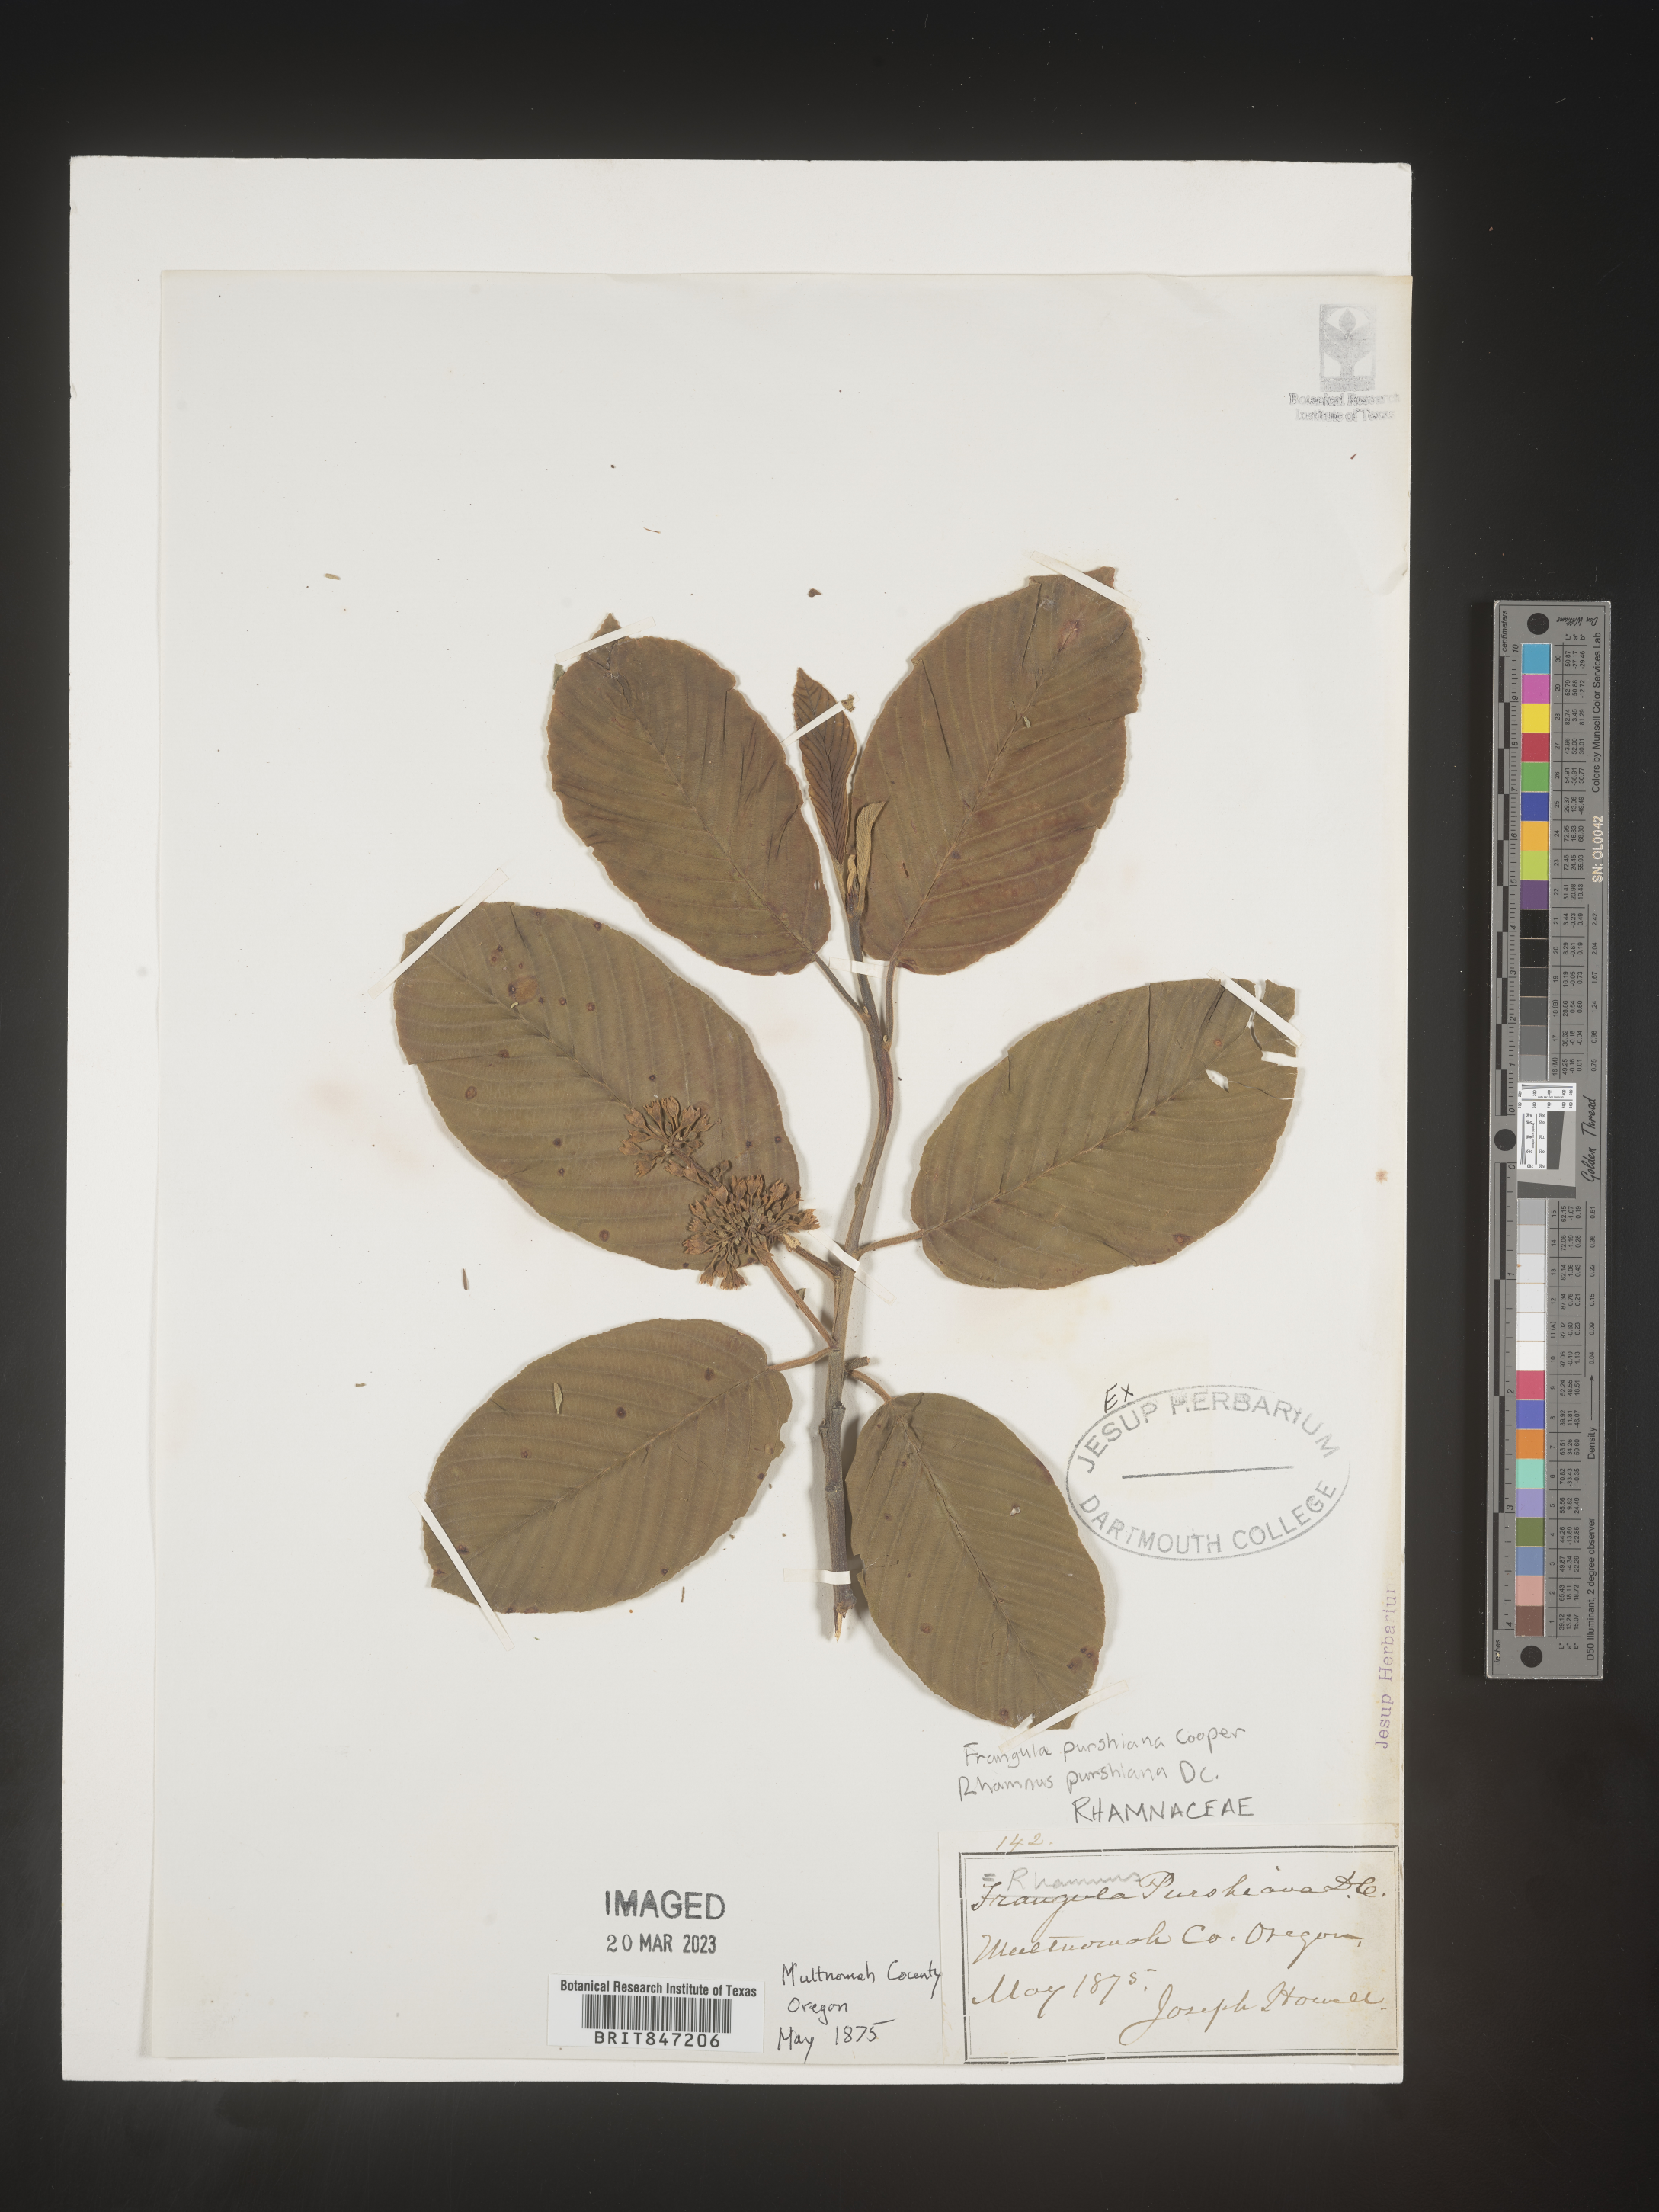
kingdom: Plantae
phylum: Tracheophyta
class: Magnoliopsida
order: Rosales
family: Rhamnaceae
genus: Frangula
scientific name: Frangula
